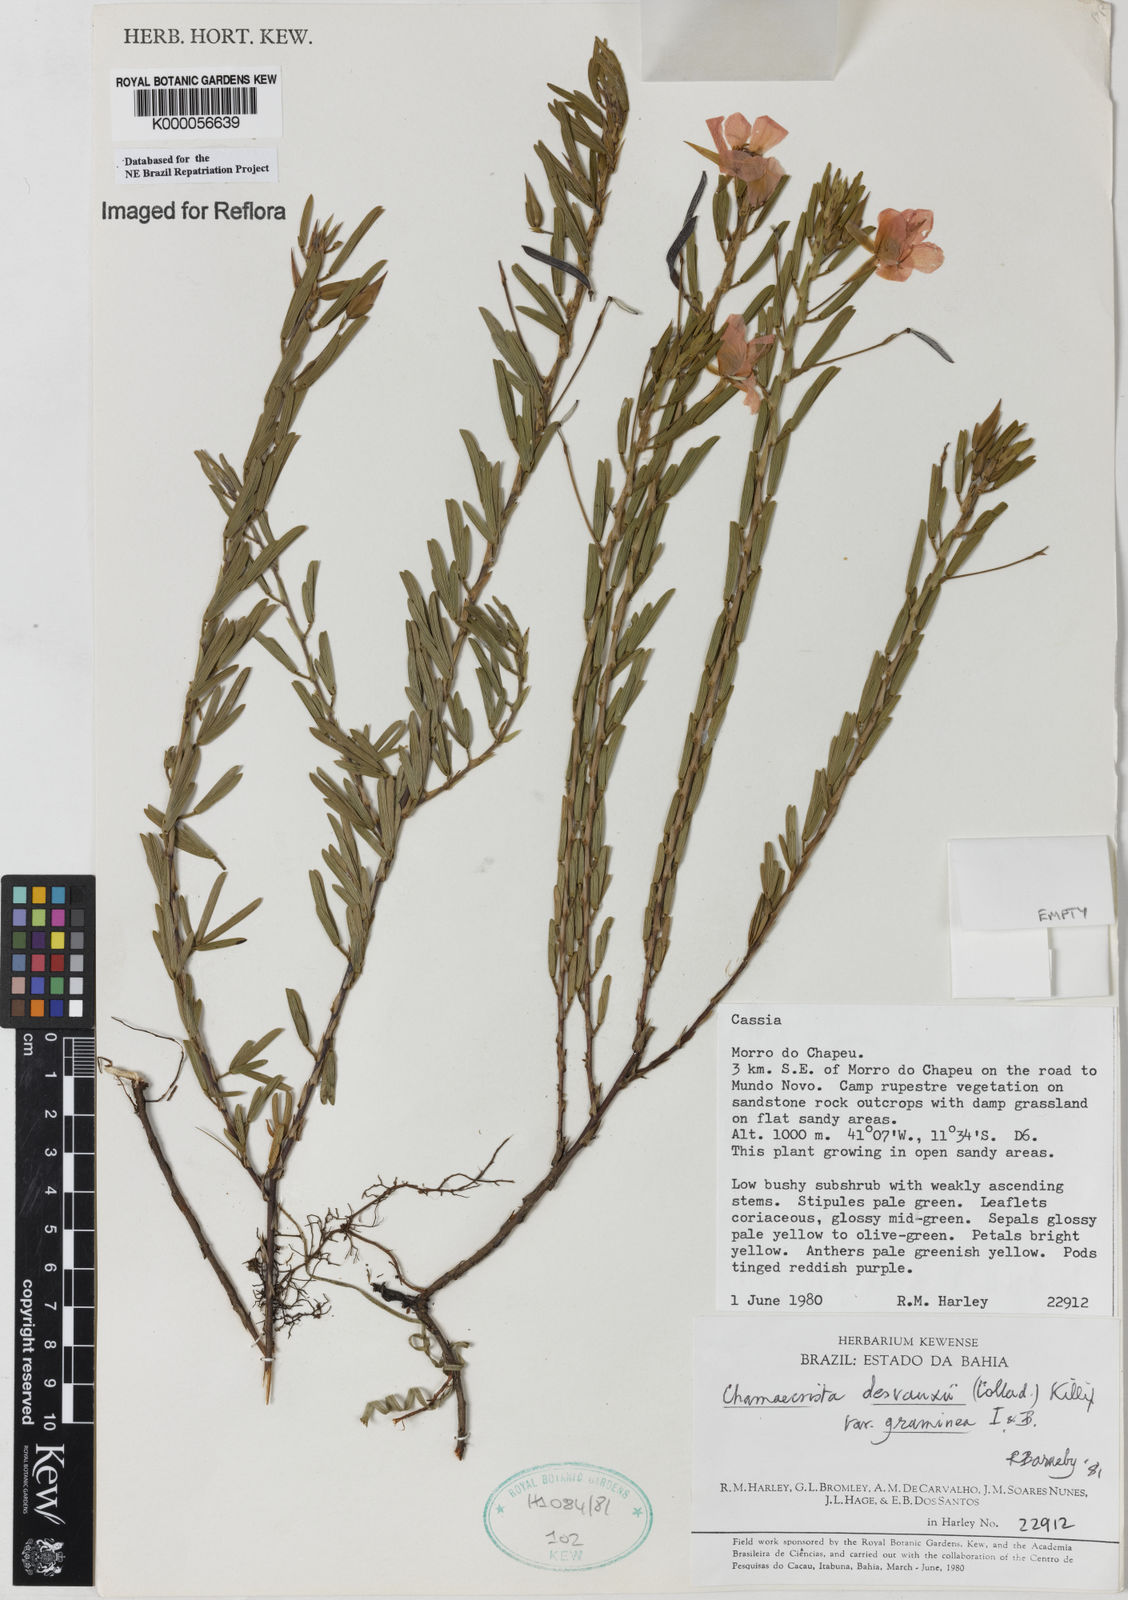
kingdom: Plantae
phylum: Tracheophyta
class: Magnoliopsida
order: Fabales
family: Fabaceae
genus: Chamaecrista
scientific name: Chamaecrista desvauxii
